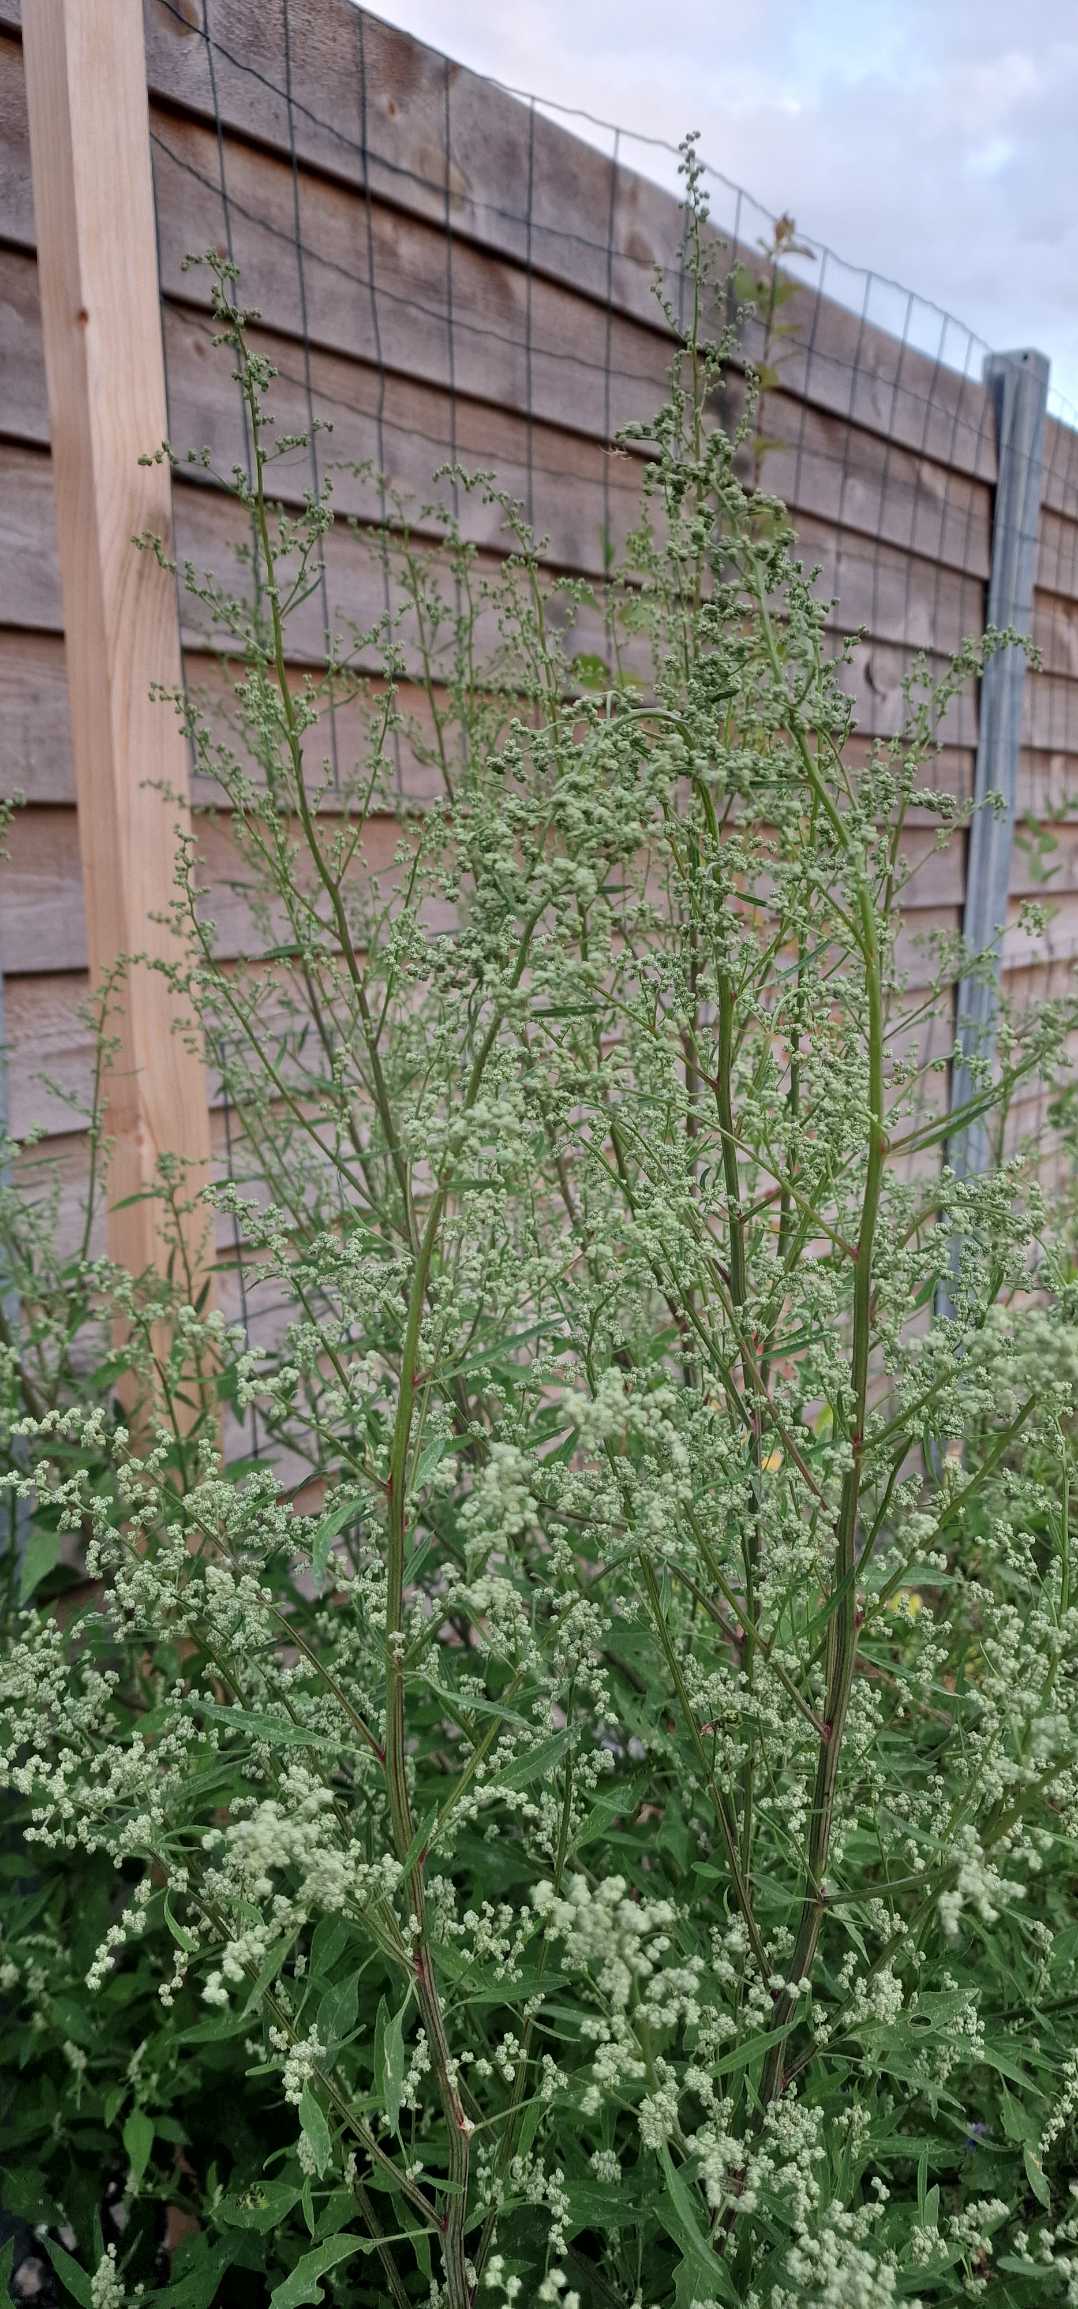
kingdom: Plantae
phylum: Tracheophyta
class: Magnoliopsida
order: Caryophyllales
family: Amaranthaceae
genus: Chenopodium
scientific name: Chenopodium album
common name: Hvidmelet gåsefod
